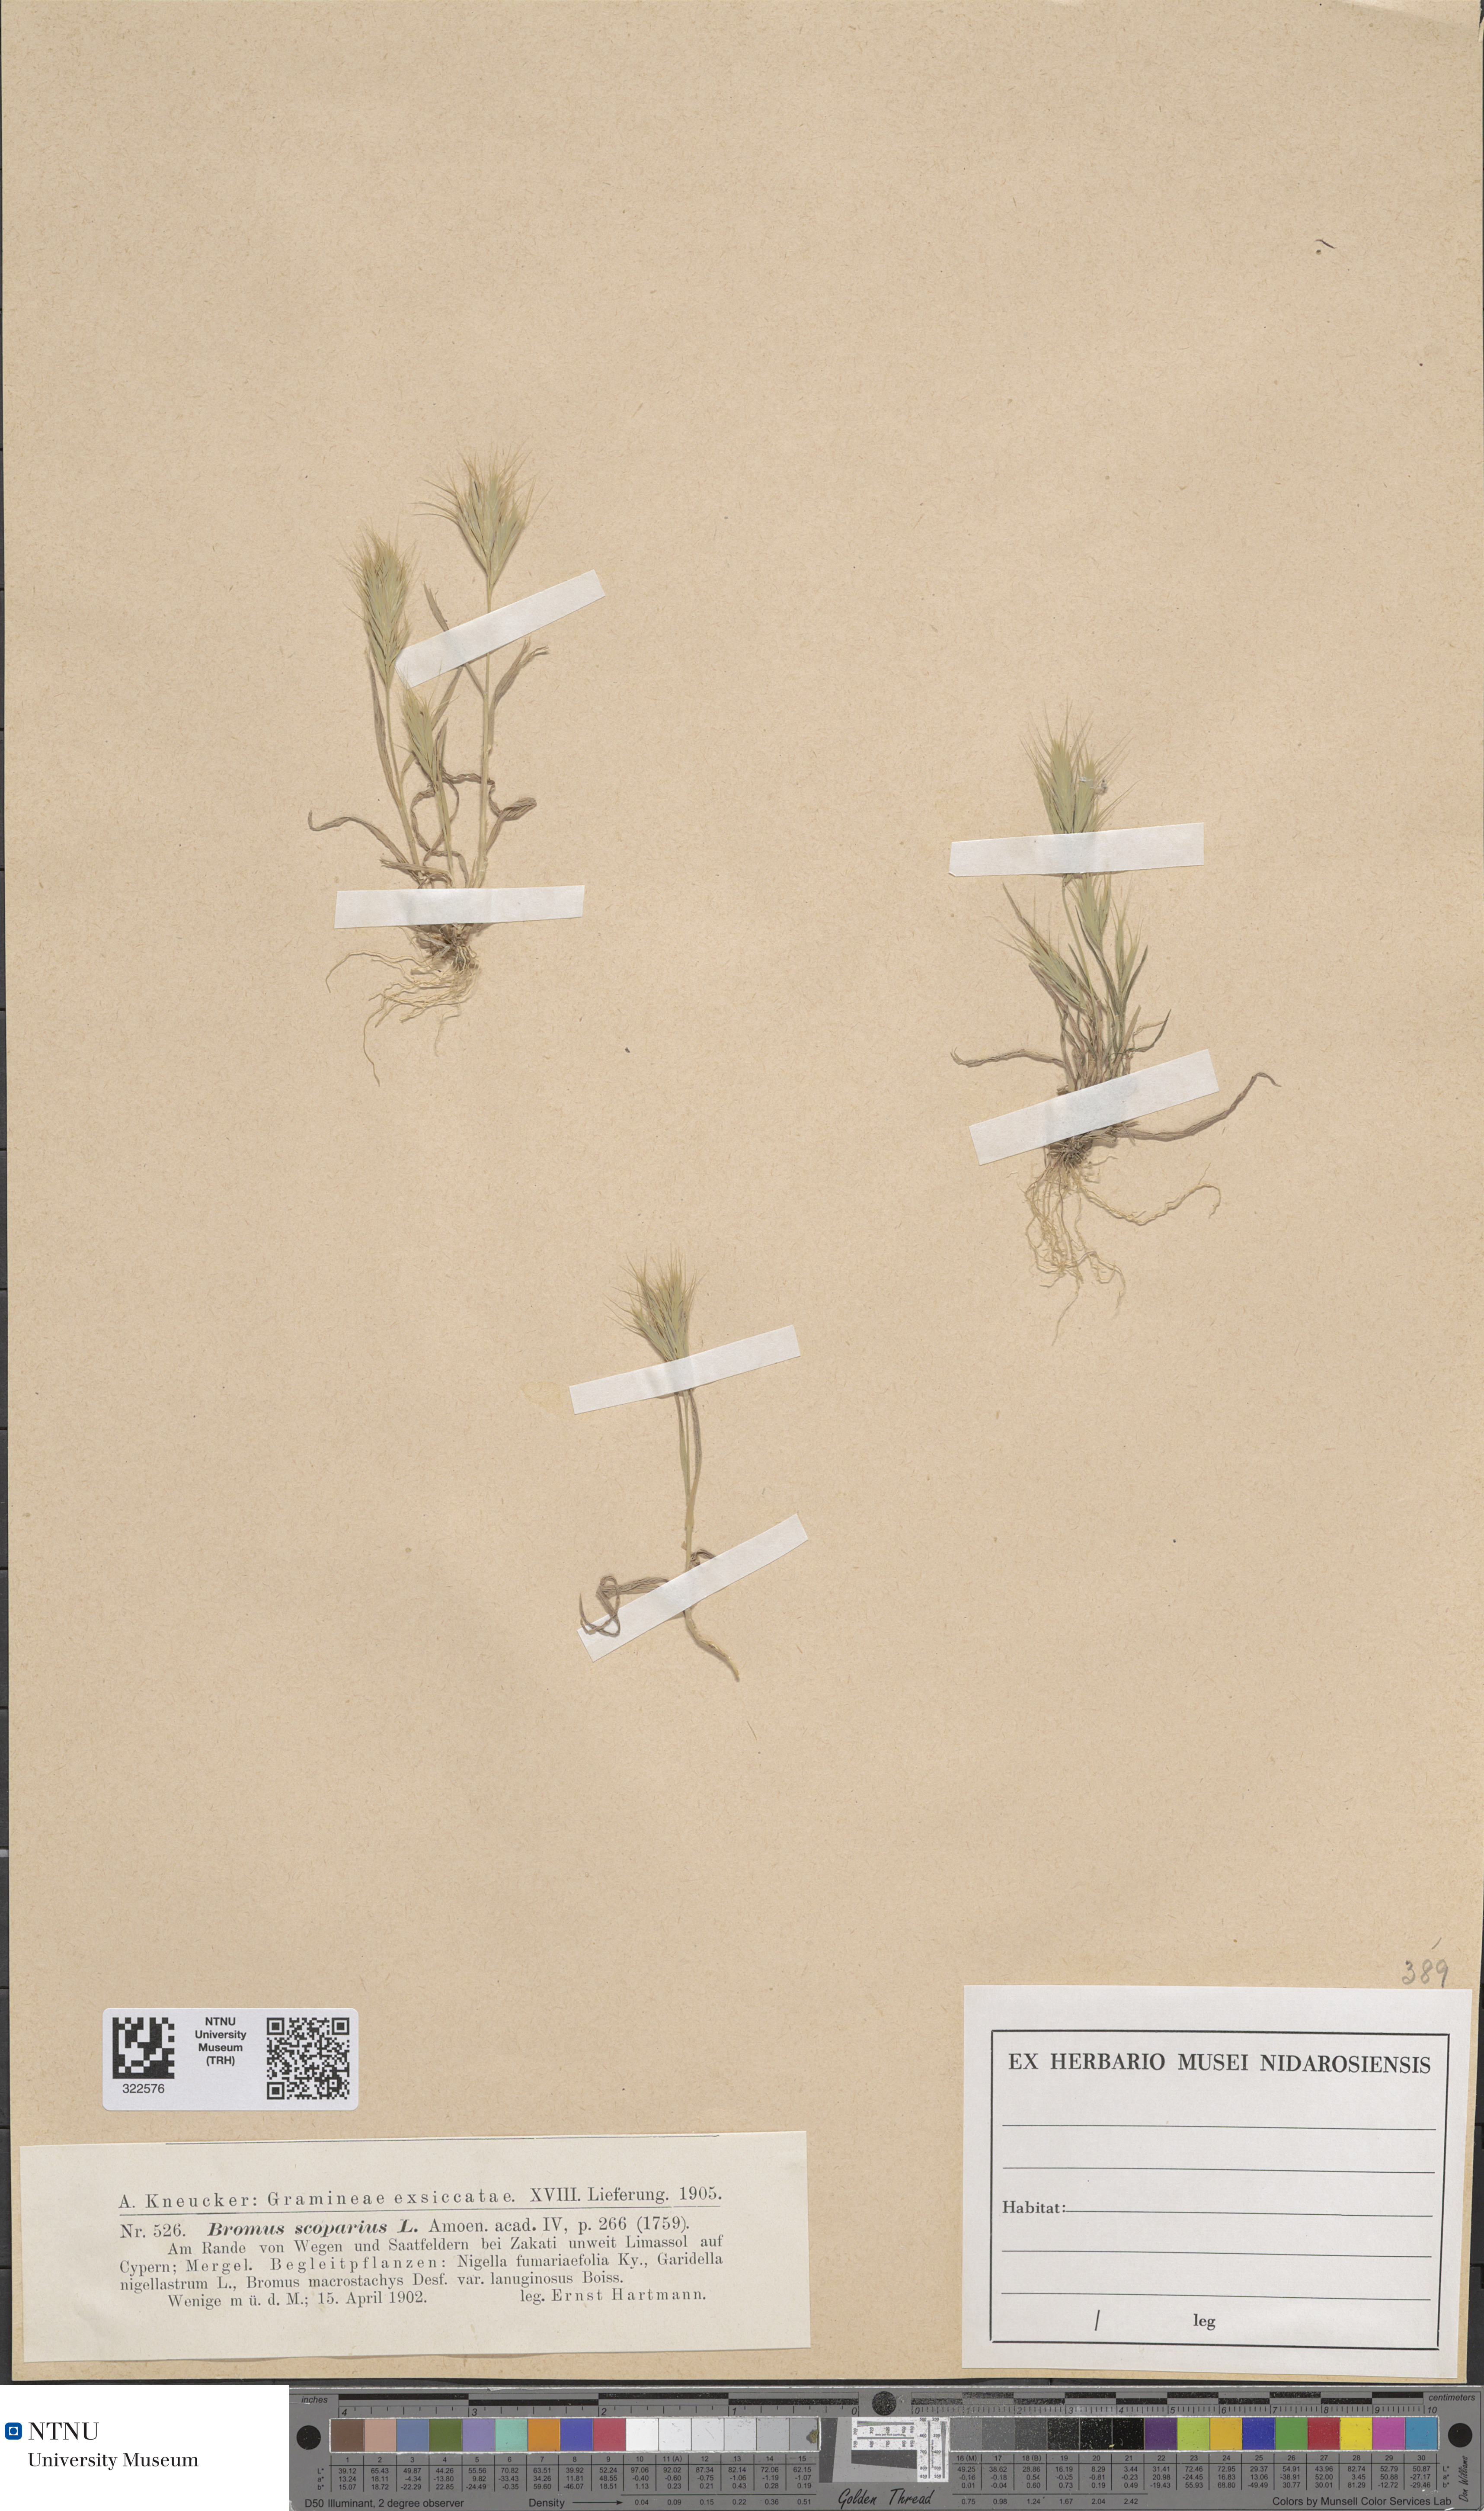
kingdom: Plantae
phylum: Tracheophyta
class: Liliopsida
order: Poales
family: Poaceae
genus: Bromus
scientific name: Bromus scoparius
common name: Broom brome
